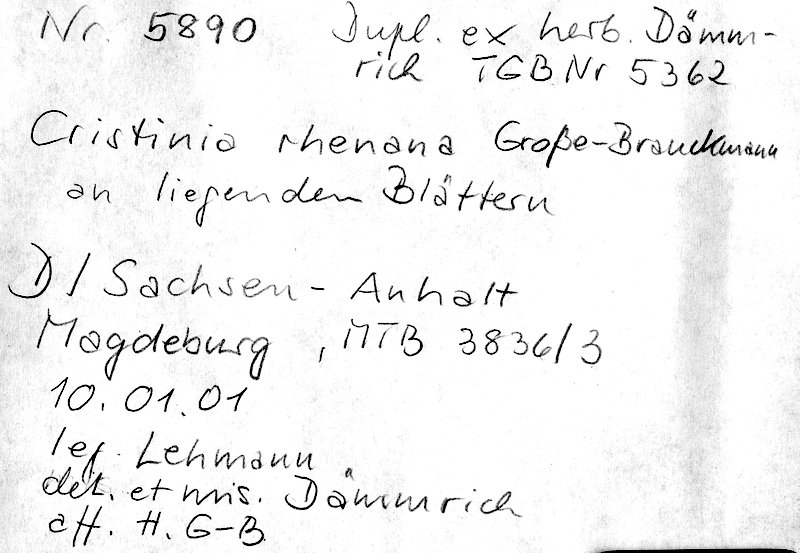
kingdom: Fungi
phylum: Basidiomycota
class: Agaricomycetes
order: Agaricales
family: Stephanosporaceae
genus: Cristinia
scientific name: Cristinia rhenana
